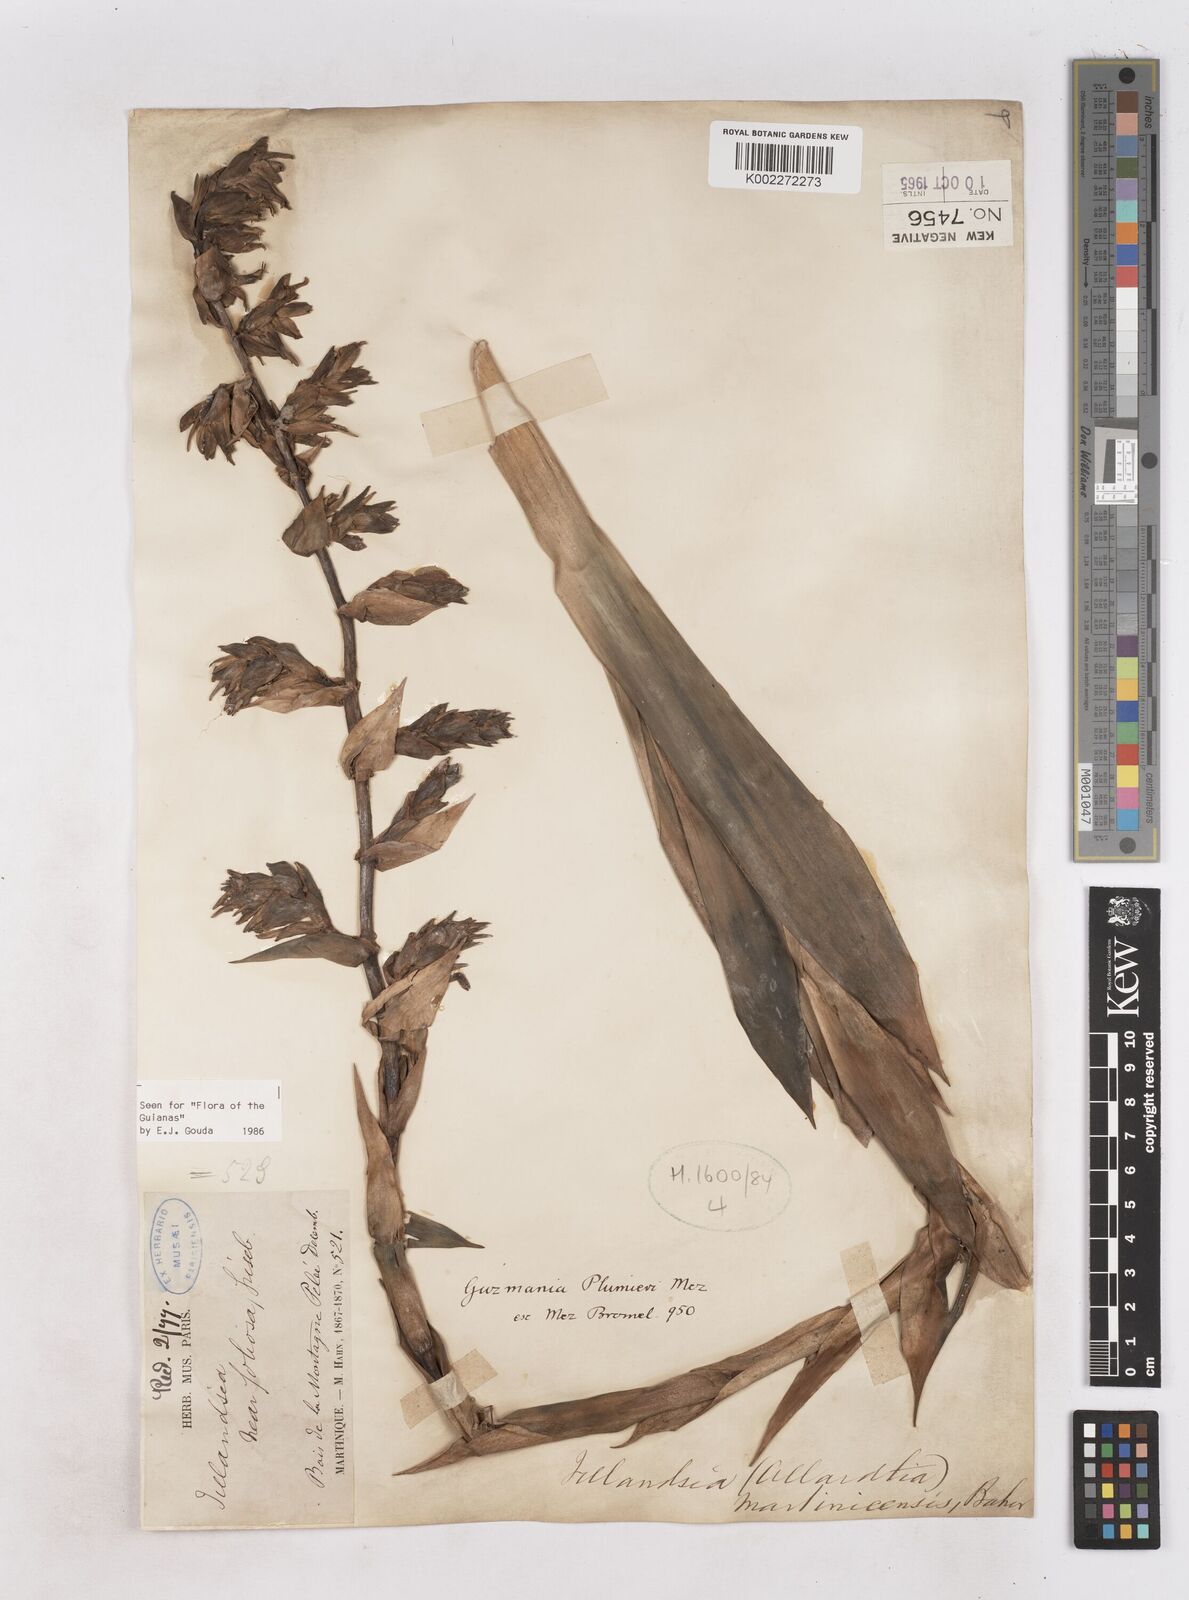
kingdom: Plantae
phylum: Tracheophyta
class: Liliopsida
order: Poales
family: Bromeliaceae
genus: Guzmania
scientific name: Guzmania plumieri
